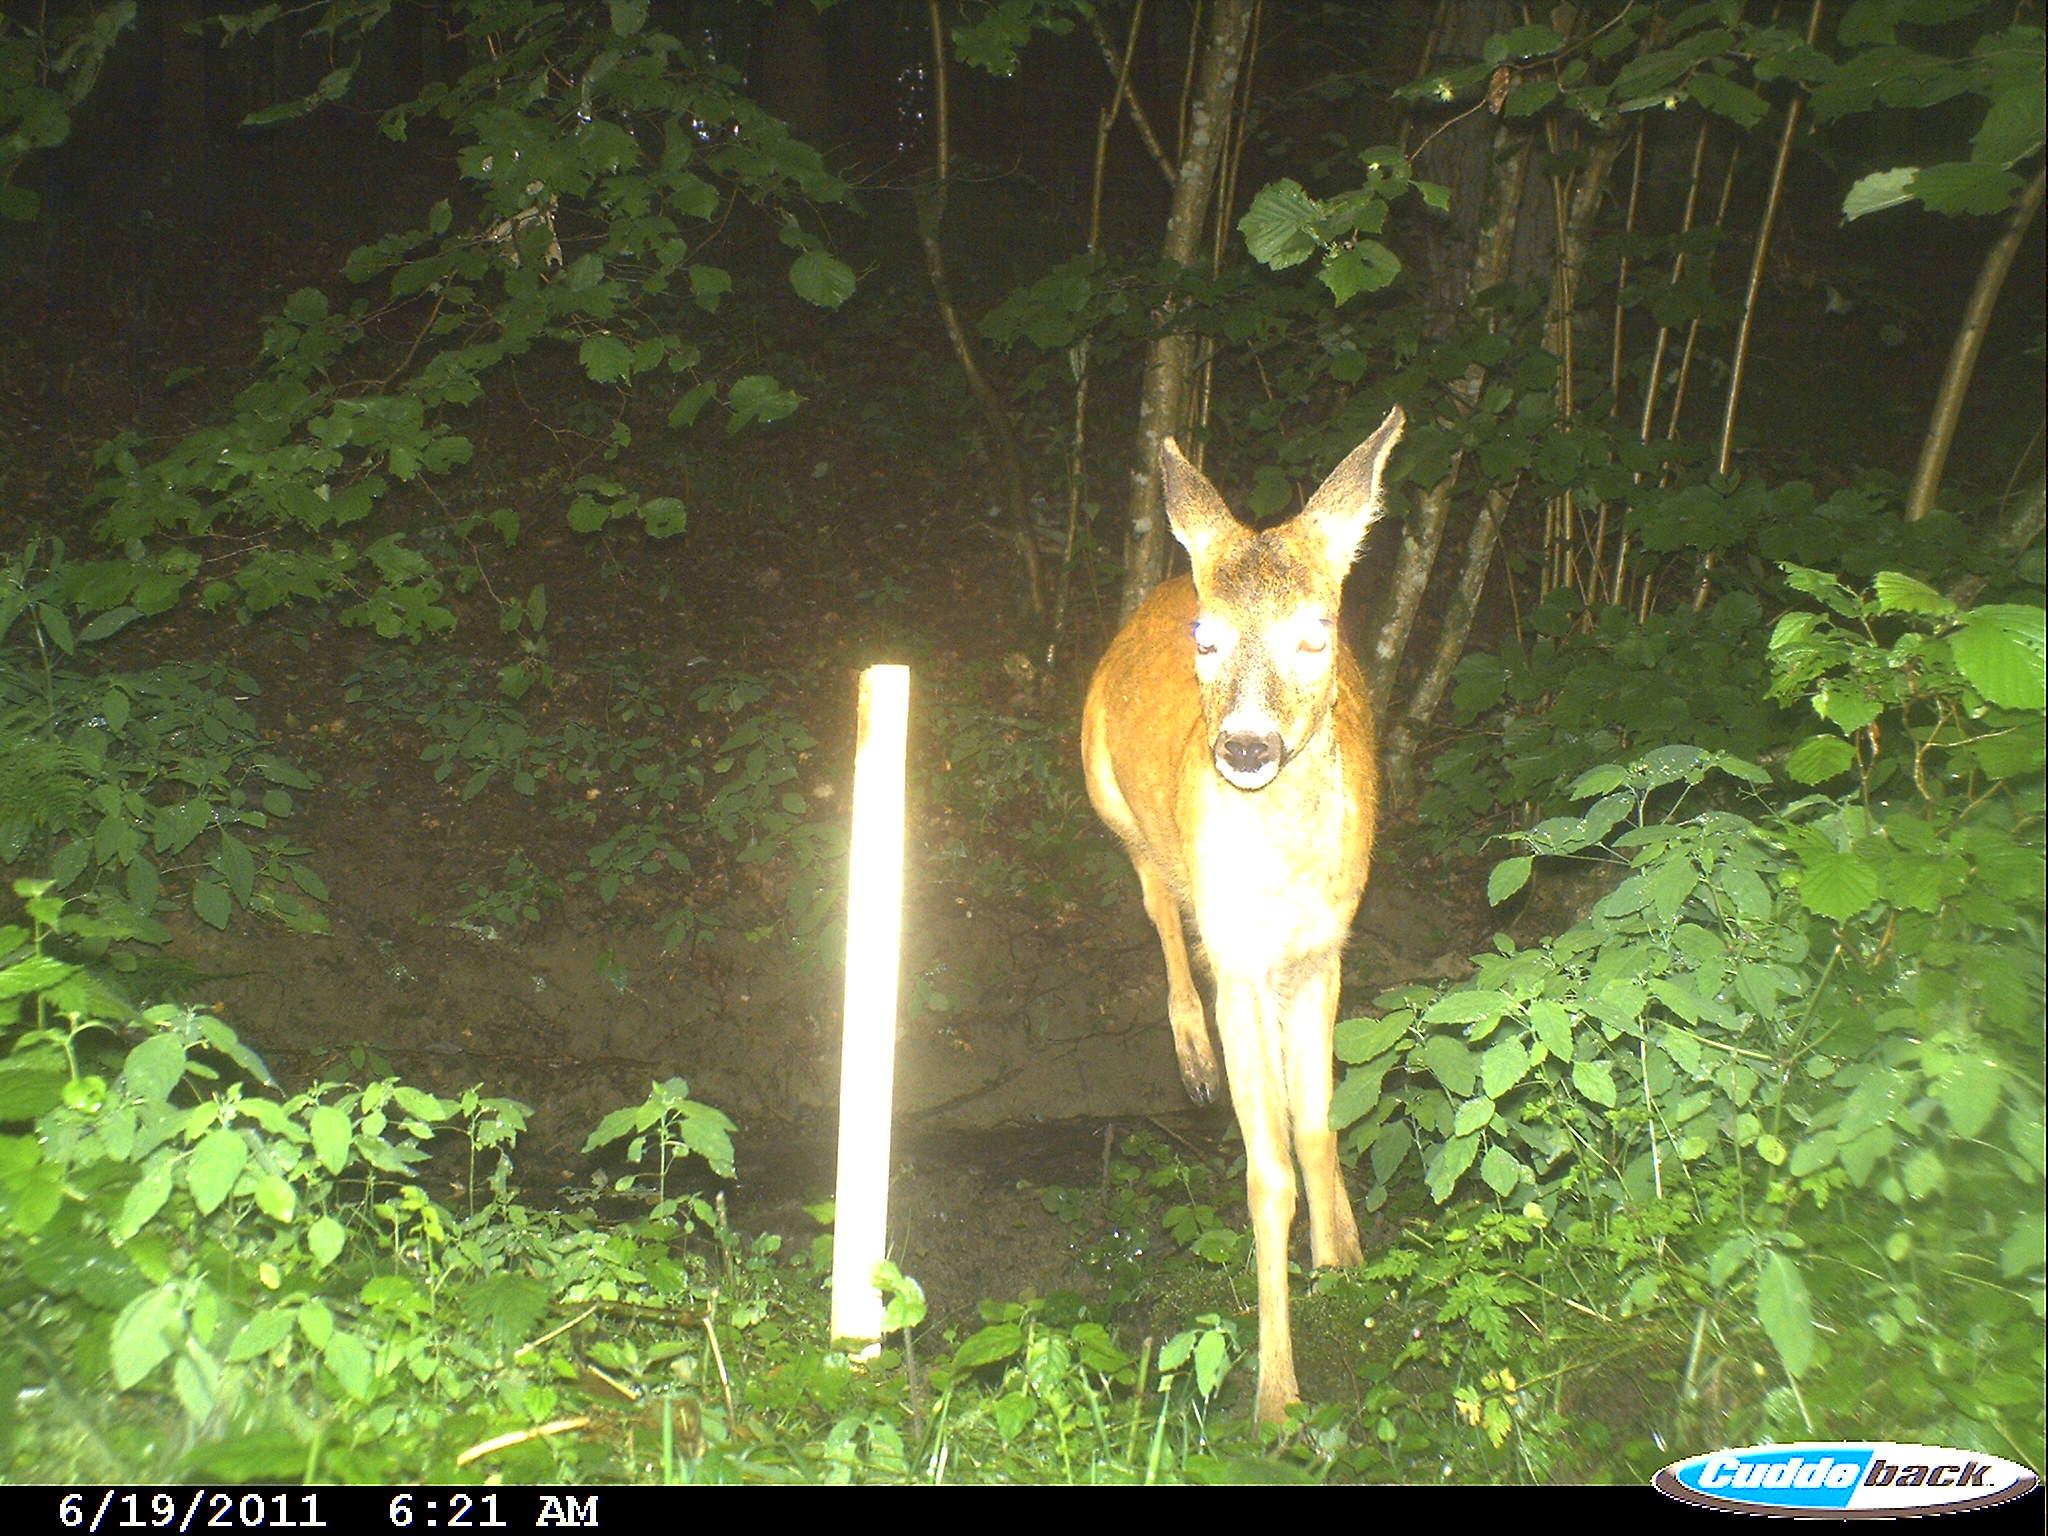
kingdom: Animalia
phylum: Chordata
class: Mammalia
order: Artiodactyla
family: Cervidae
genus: Capreolus
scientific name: Capreolus capreolus
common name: Western roe deer
